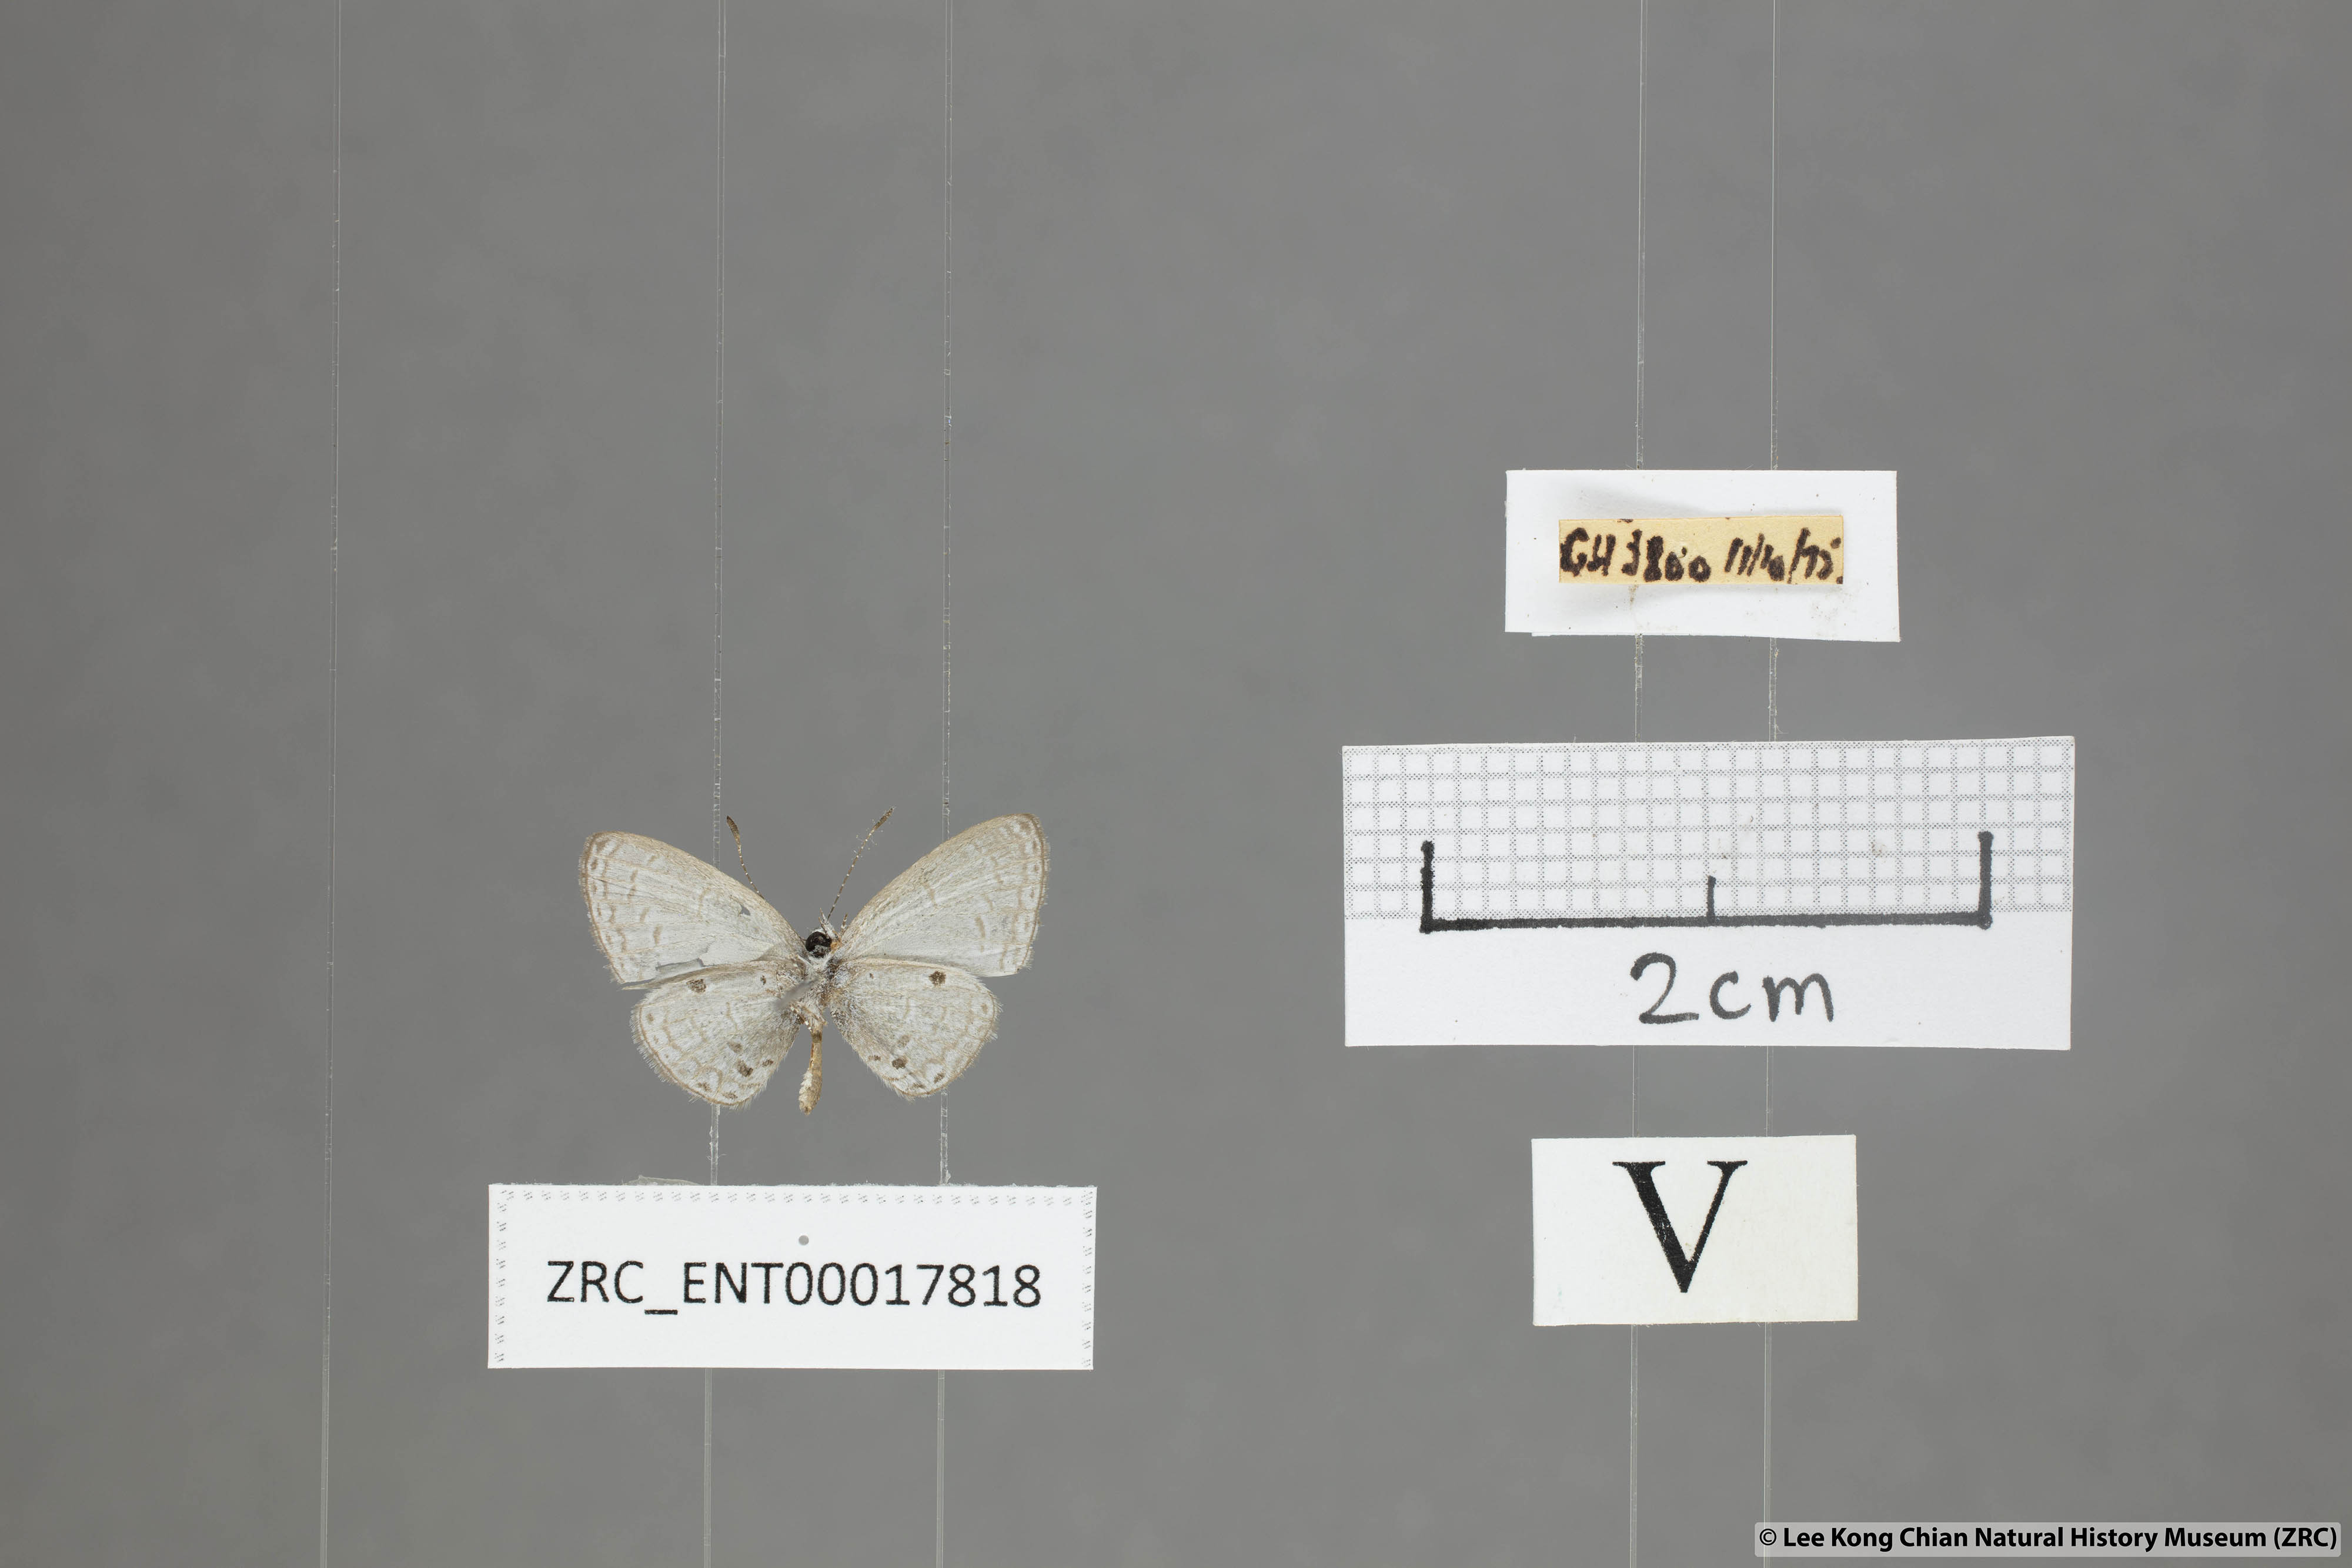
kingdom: Animalia
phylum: Arthropoda
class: Insecta
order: Lepidoptera
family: Lycaenidae
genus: Cebrella
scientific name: Cebrella
